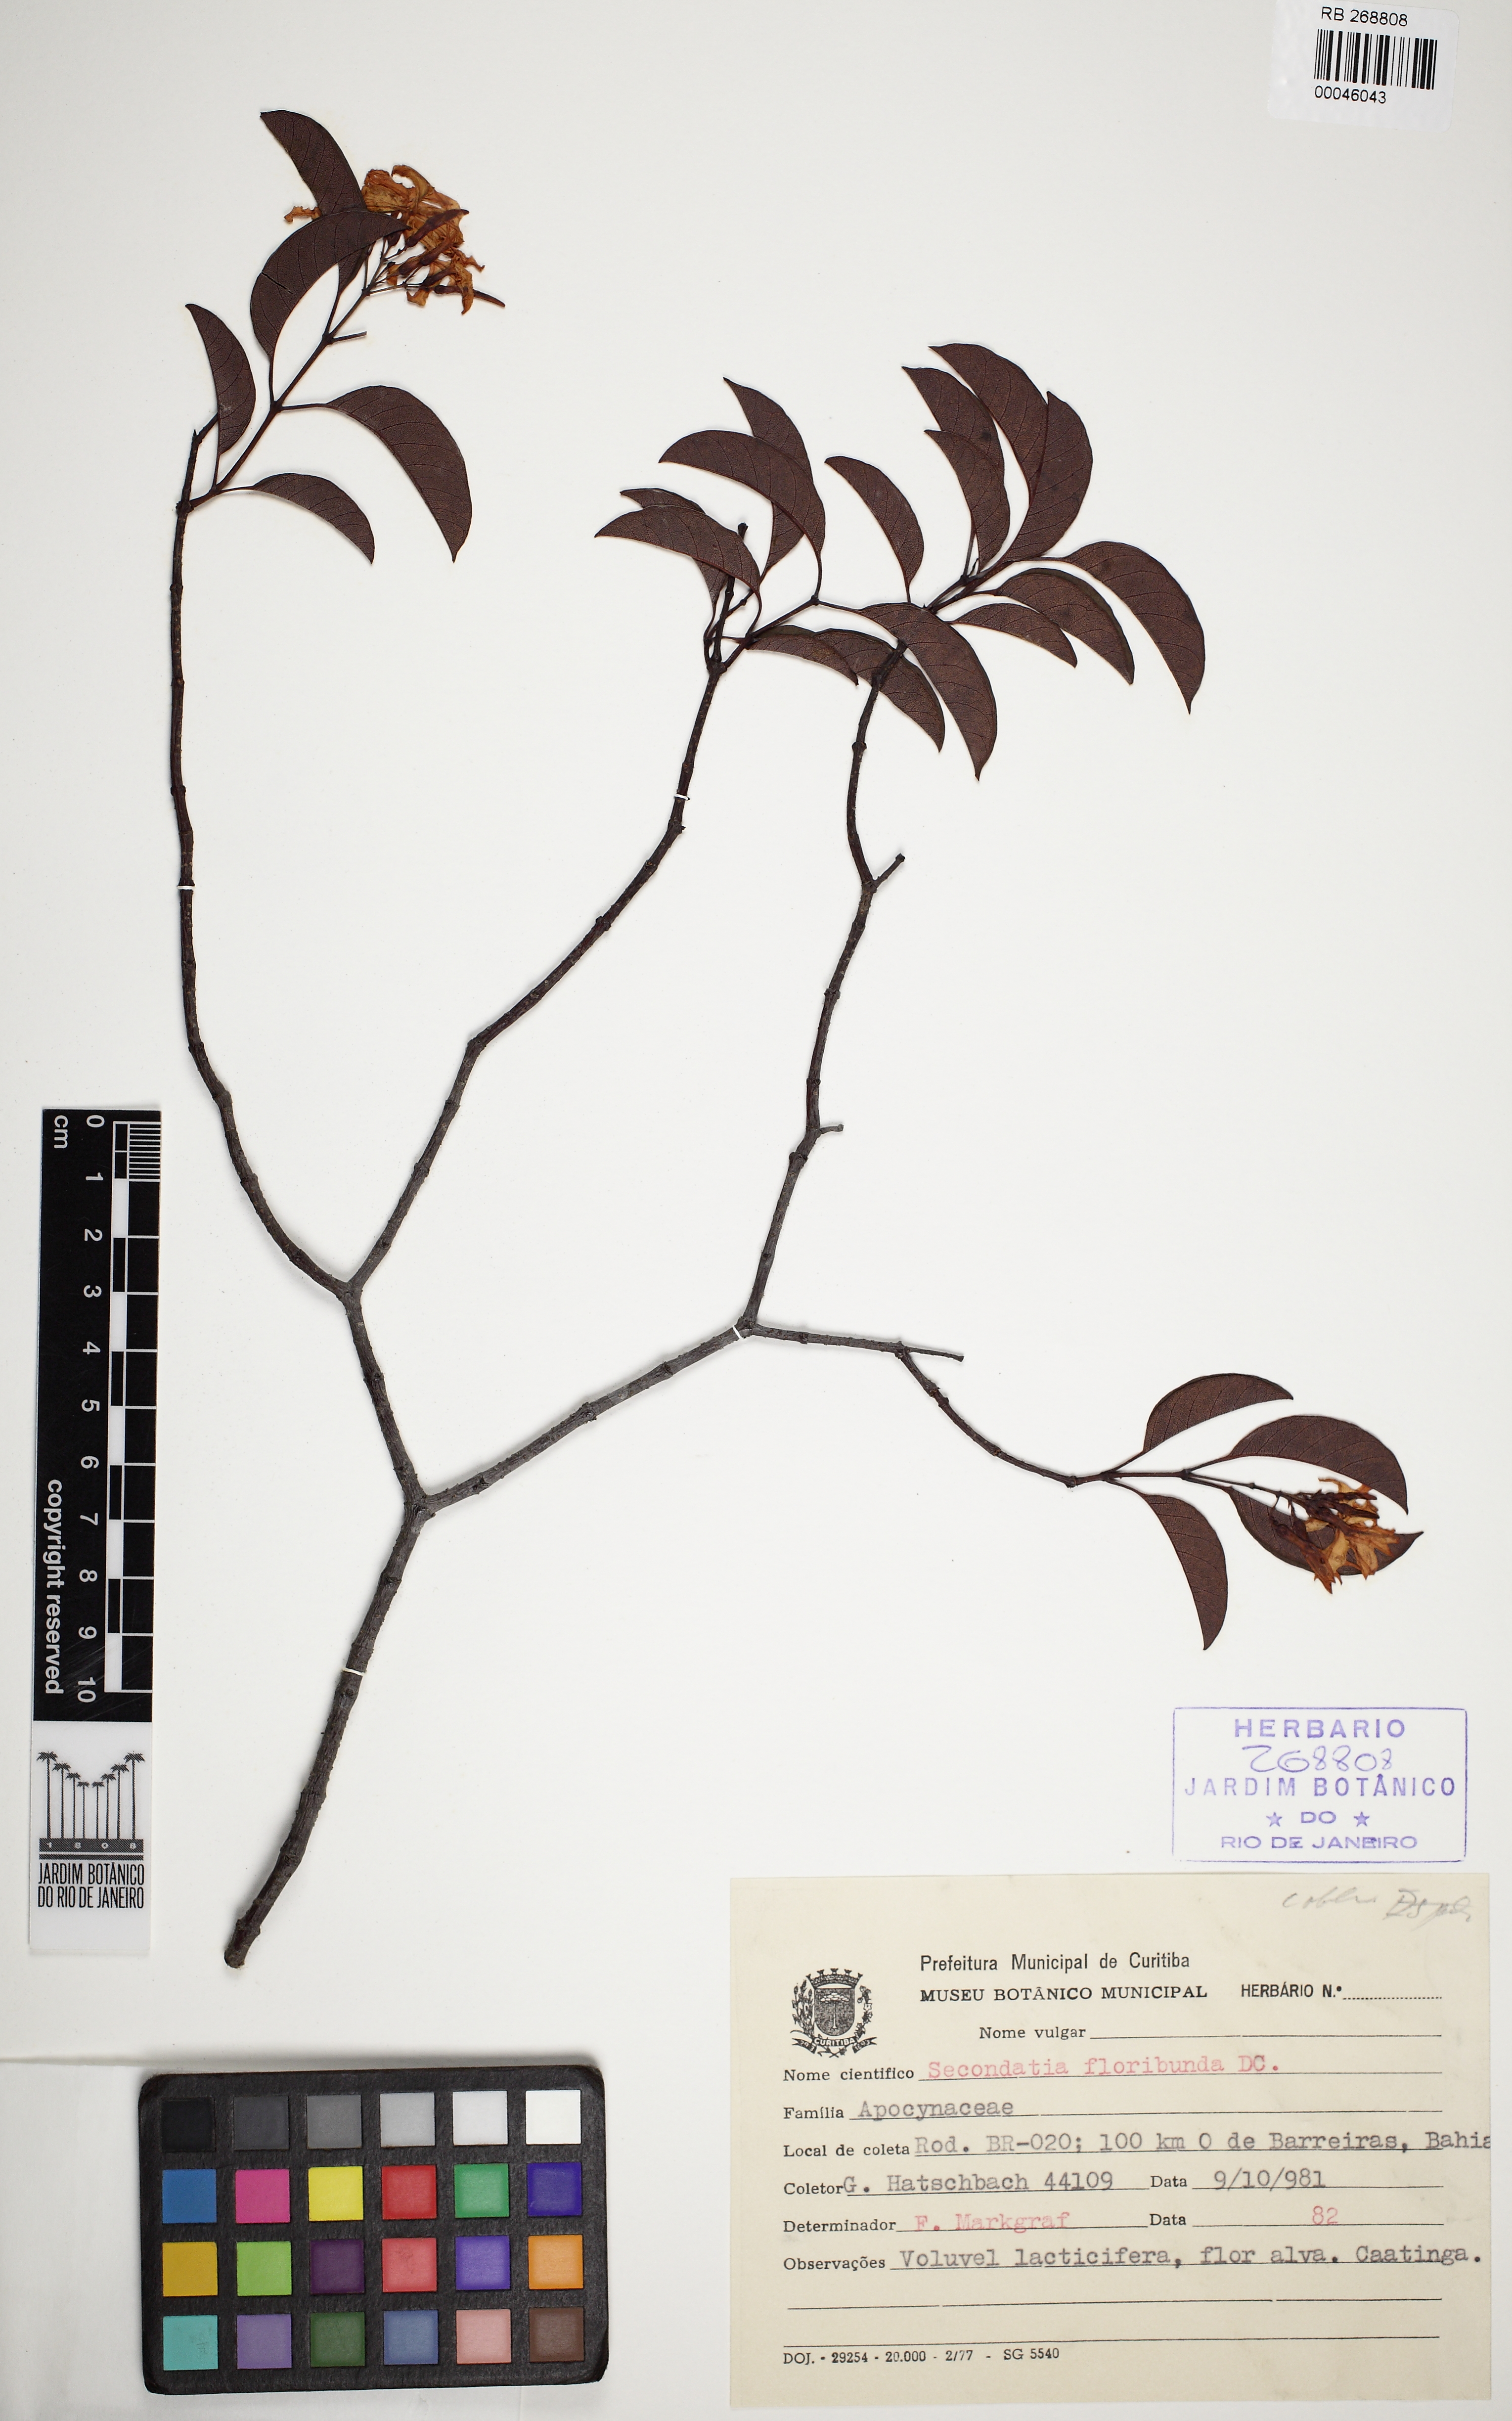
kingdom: Plantae
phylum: Tracheophyta
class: Magnoliopsida
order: Gentianales
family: Apocynaceae
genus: Secondatia
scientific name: Secondatia floribunda
